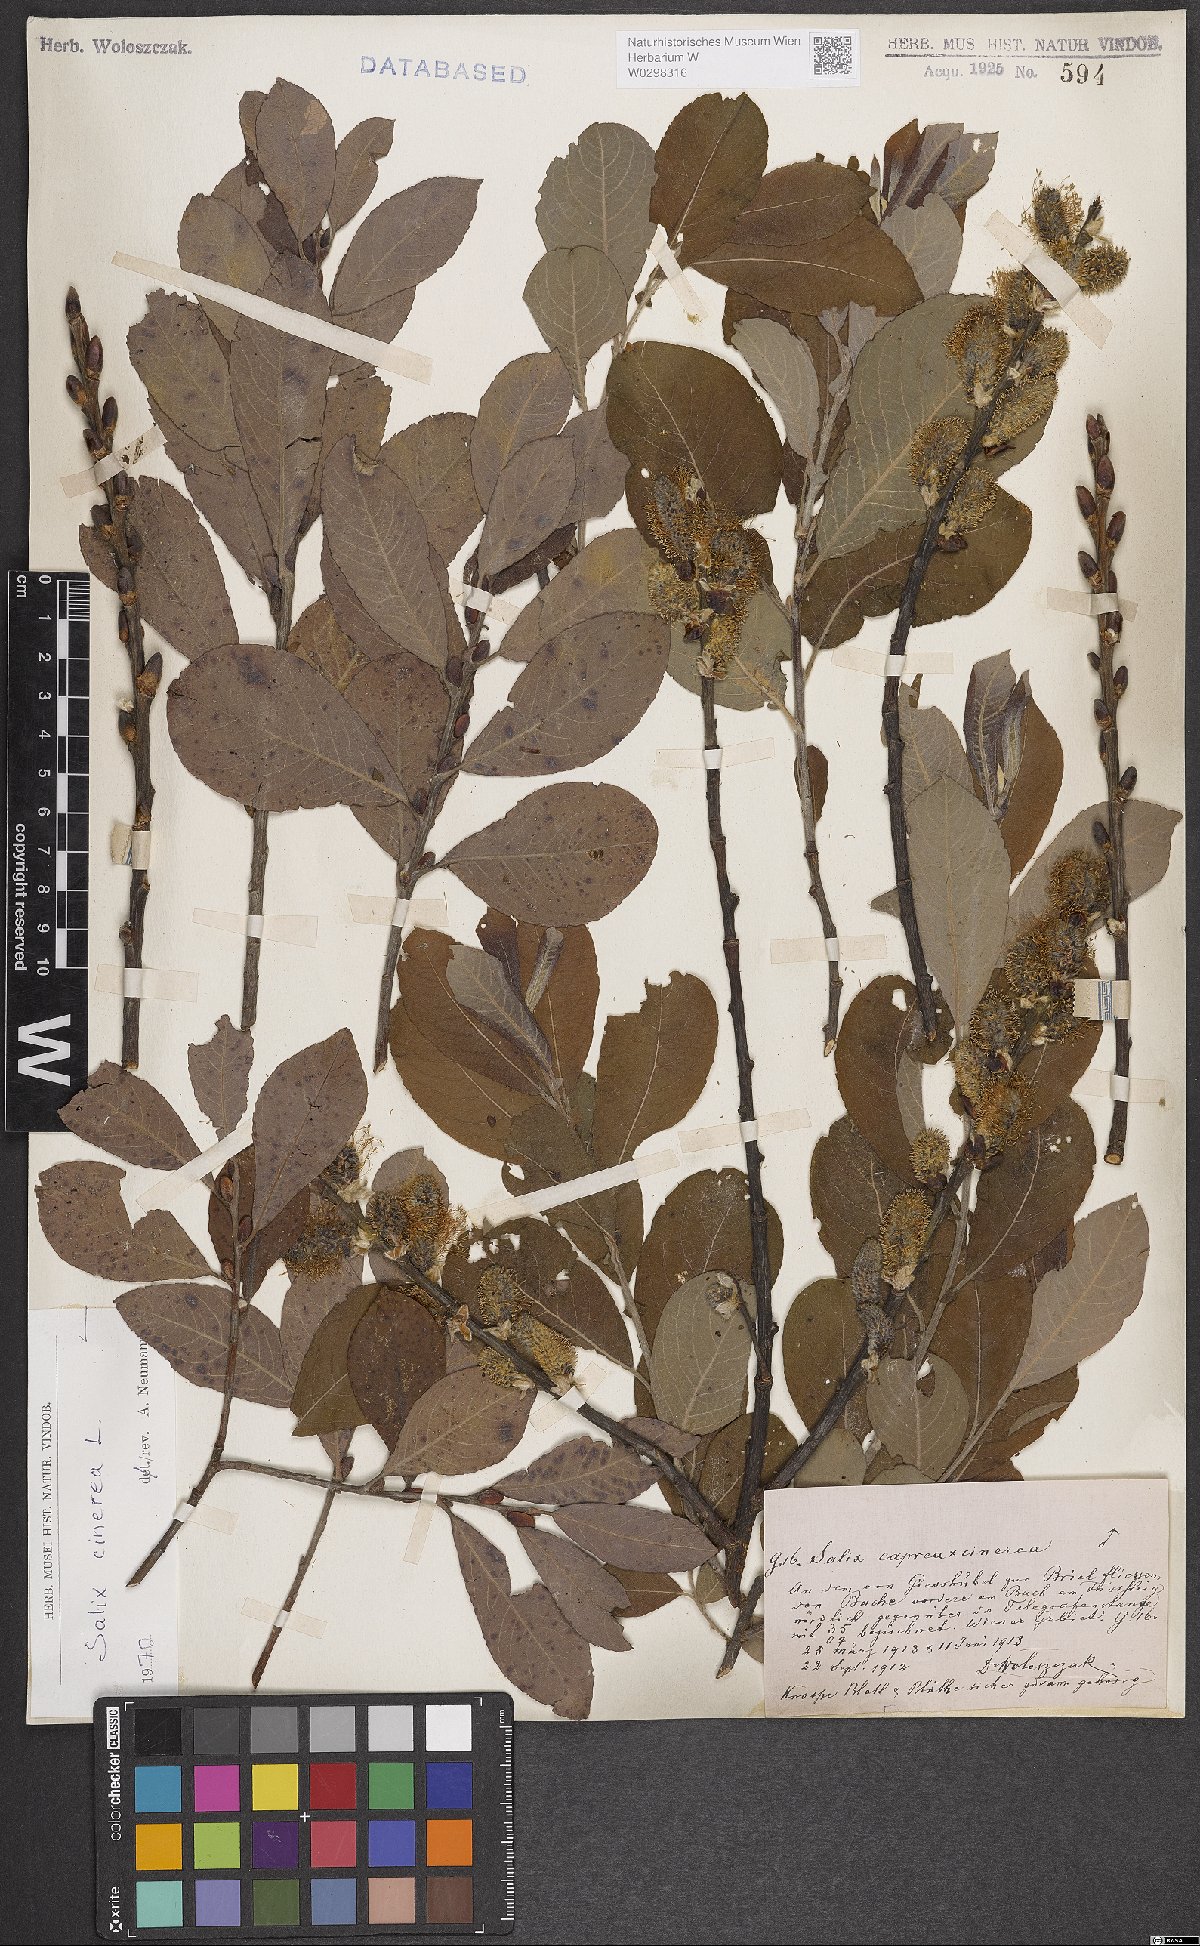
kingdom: Plantae
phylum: Tracheophyta
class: Magnoliopsida
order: Malpighiales
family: Salicaceae
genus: Salix
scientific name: Salix cinerea
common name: Common sallow
